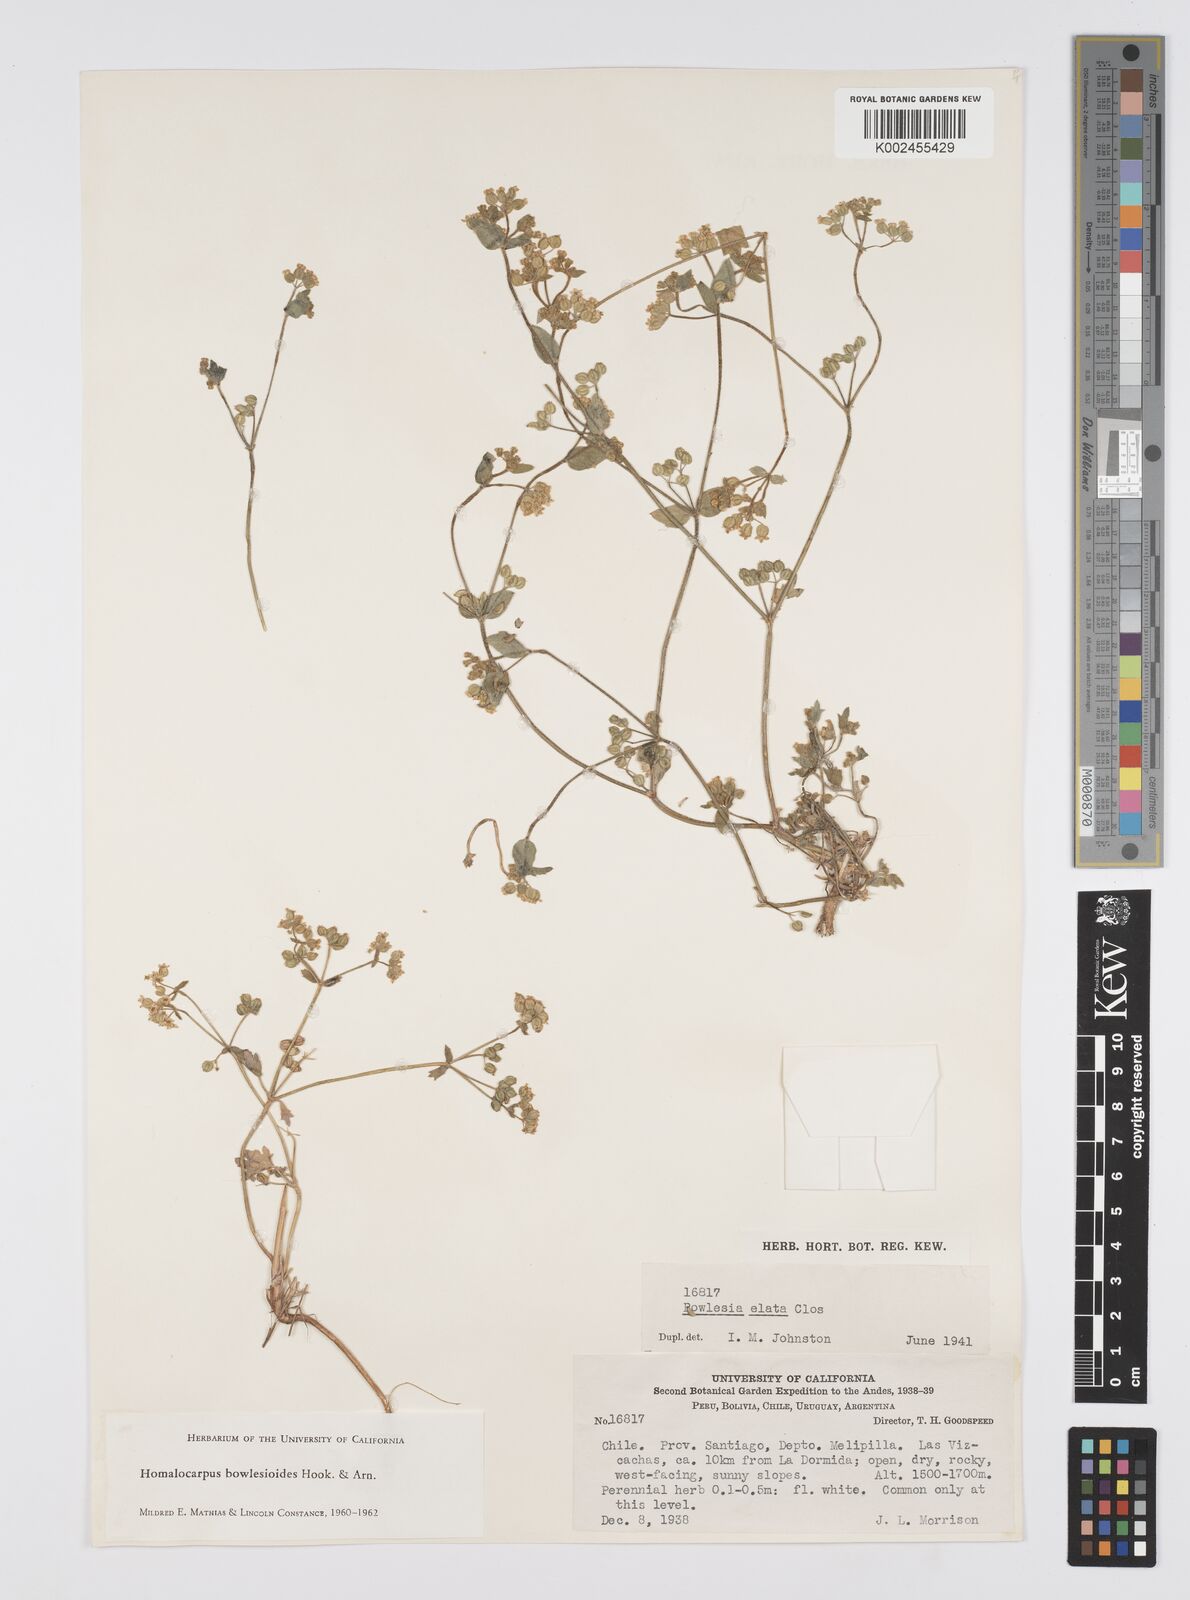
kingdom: Plantae
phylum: Tracheophyta
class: Magnoliopsida
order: Apiales
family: Apiaceae
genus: Homalocarpus
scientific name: Homalocarpus bowlesioides
